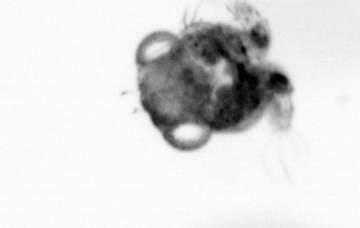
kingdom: Animalia
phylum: Arthropoda
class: Copepoda
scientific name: Copepoda
